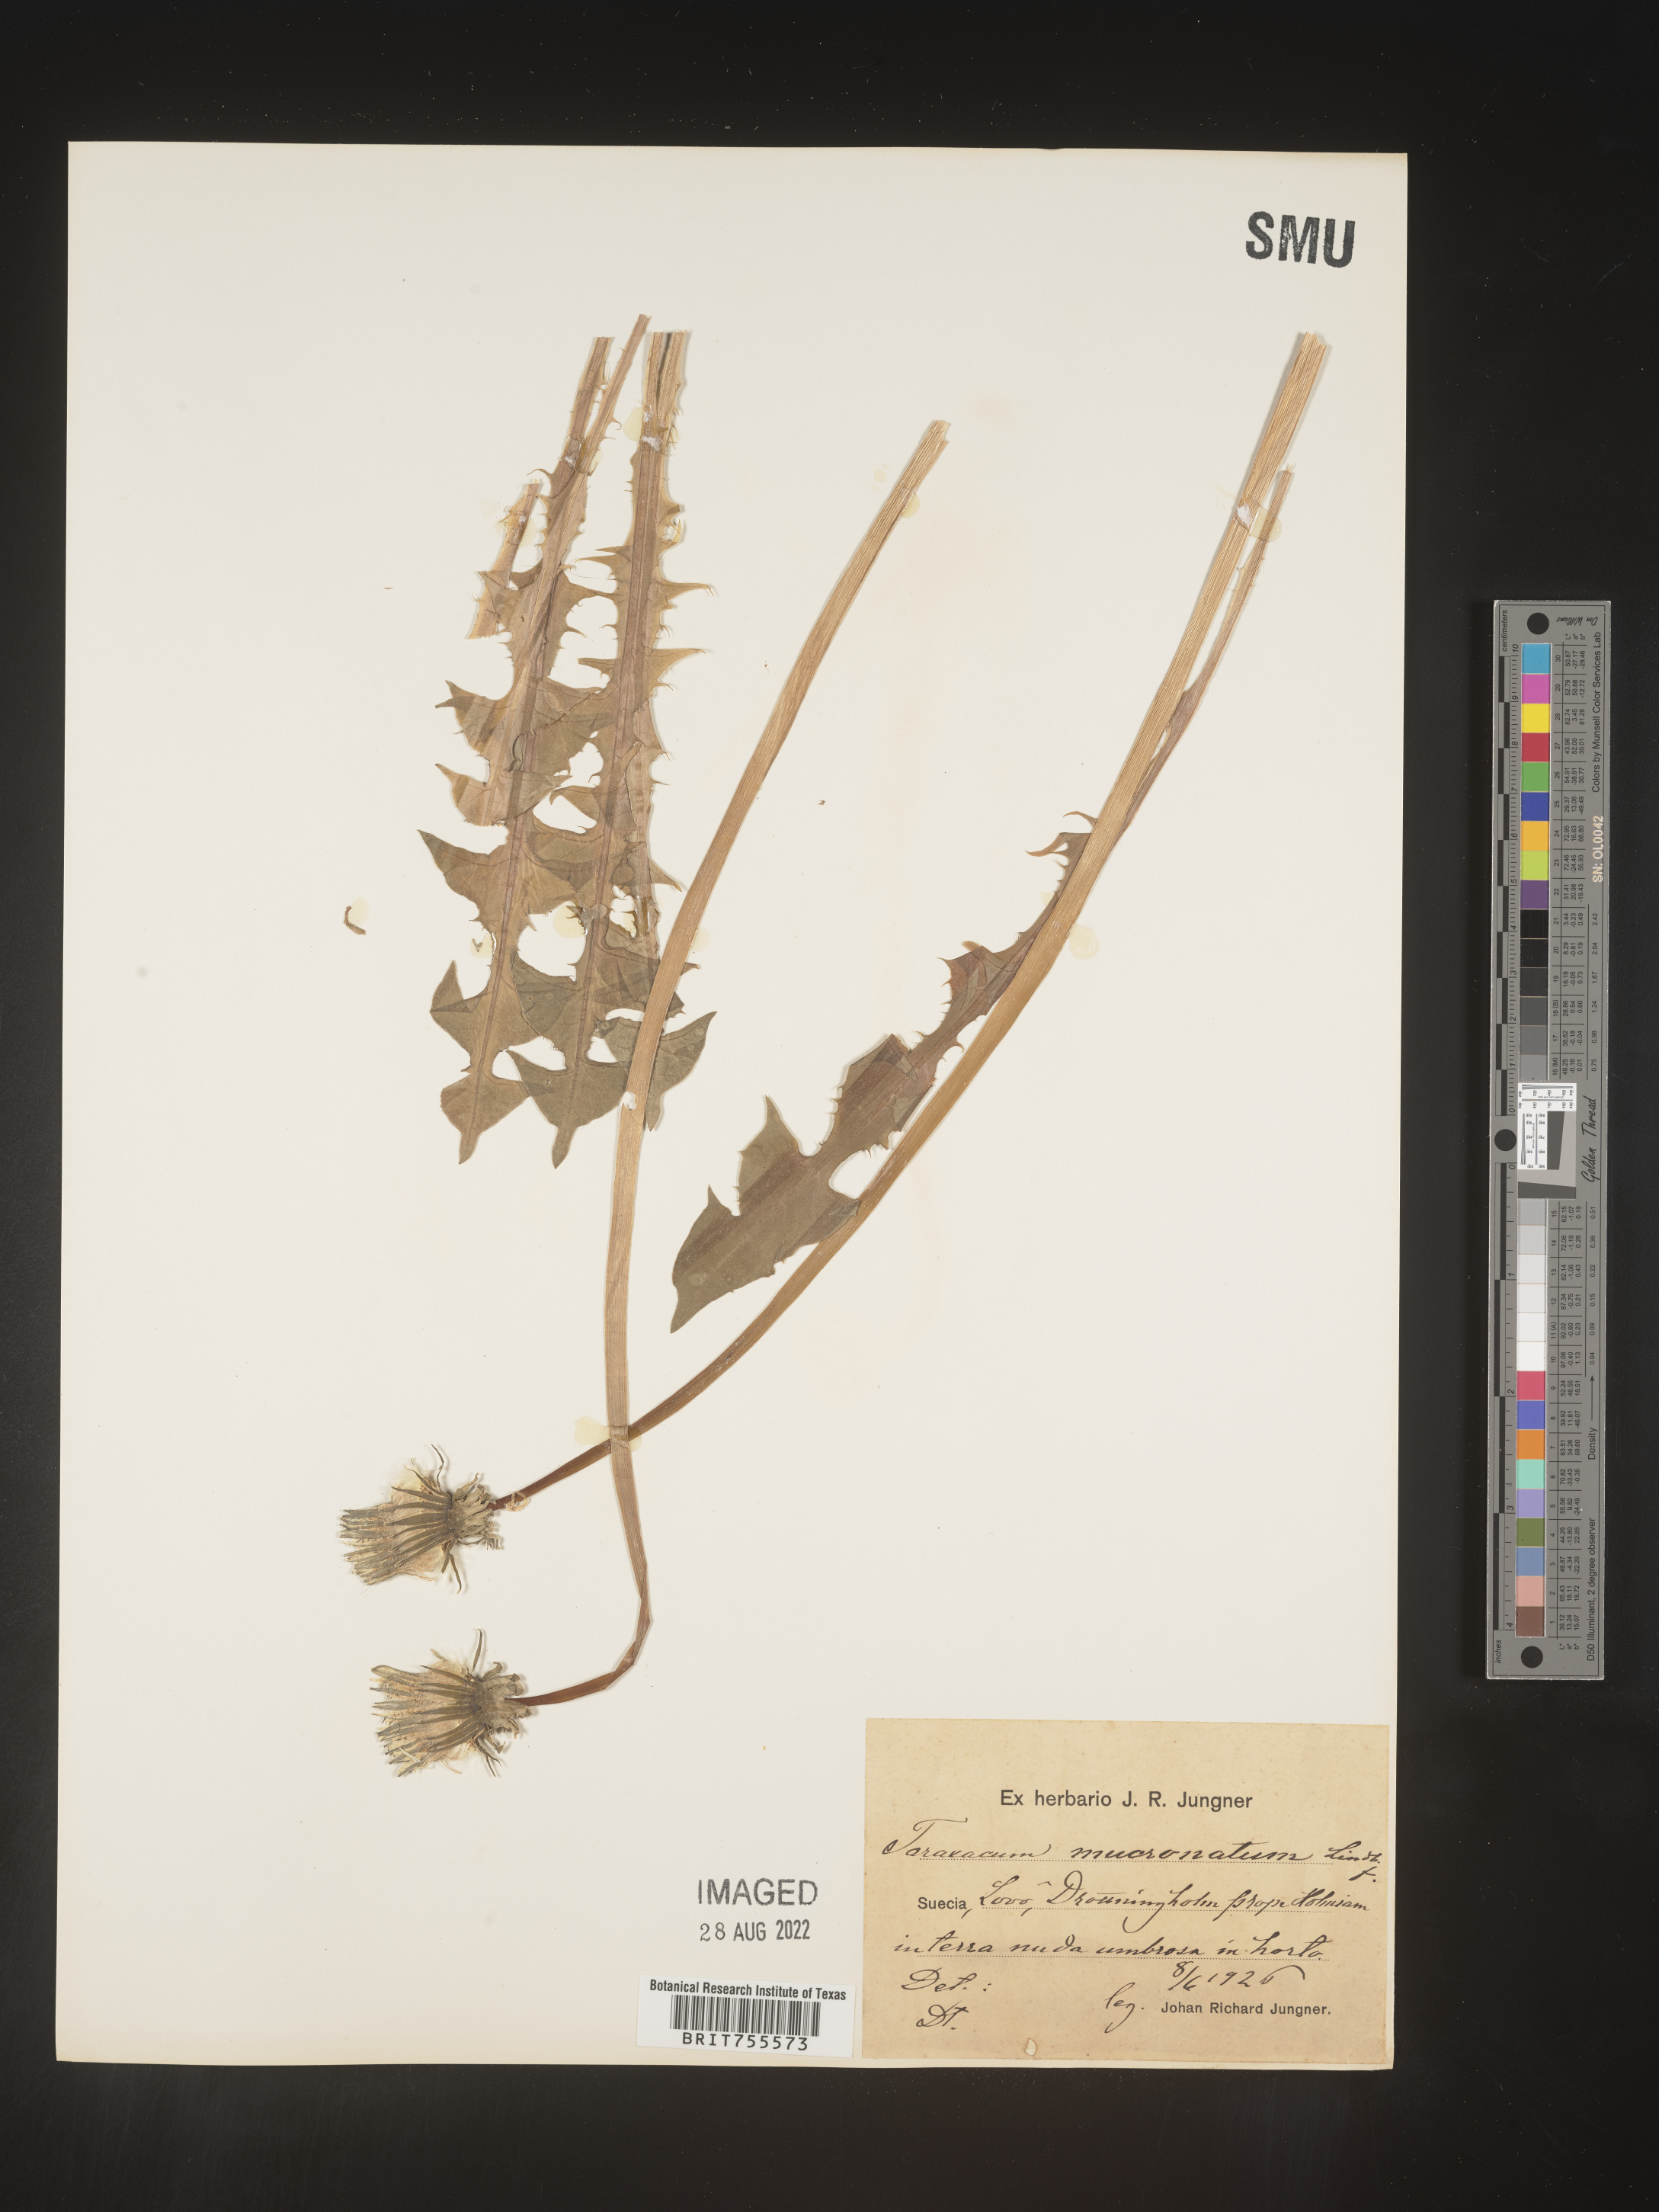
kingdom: Plantae
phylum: Tracheophyta
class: Magnoliopsida
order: Asterales
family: Asteraceae
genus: Taraxacum
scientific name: Taraxacum
